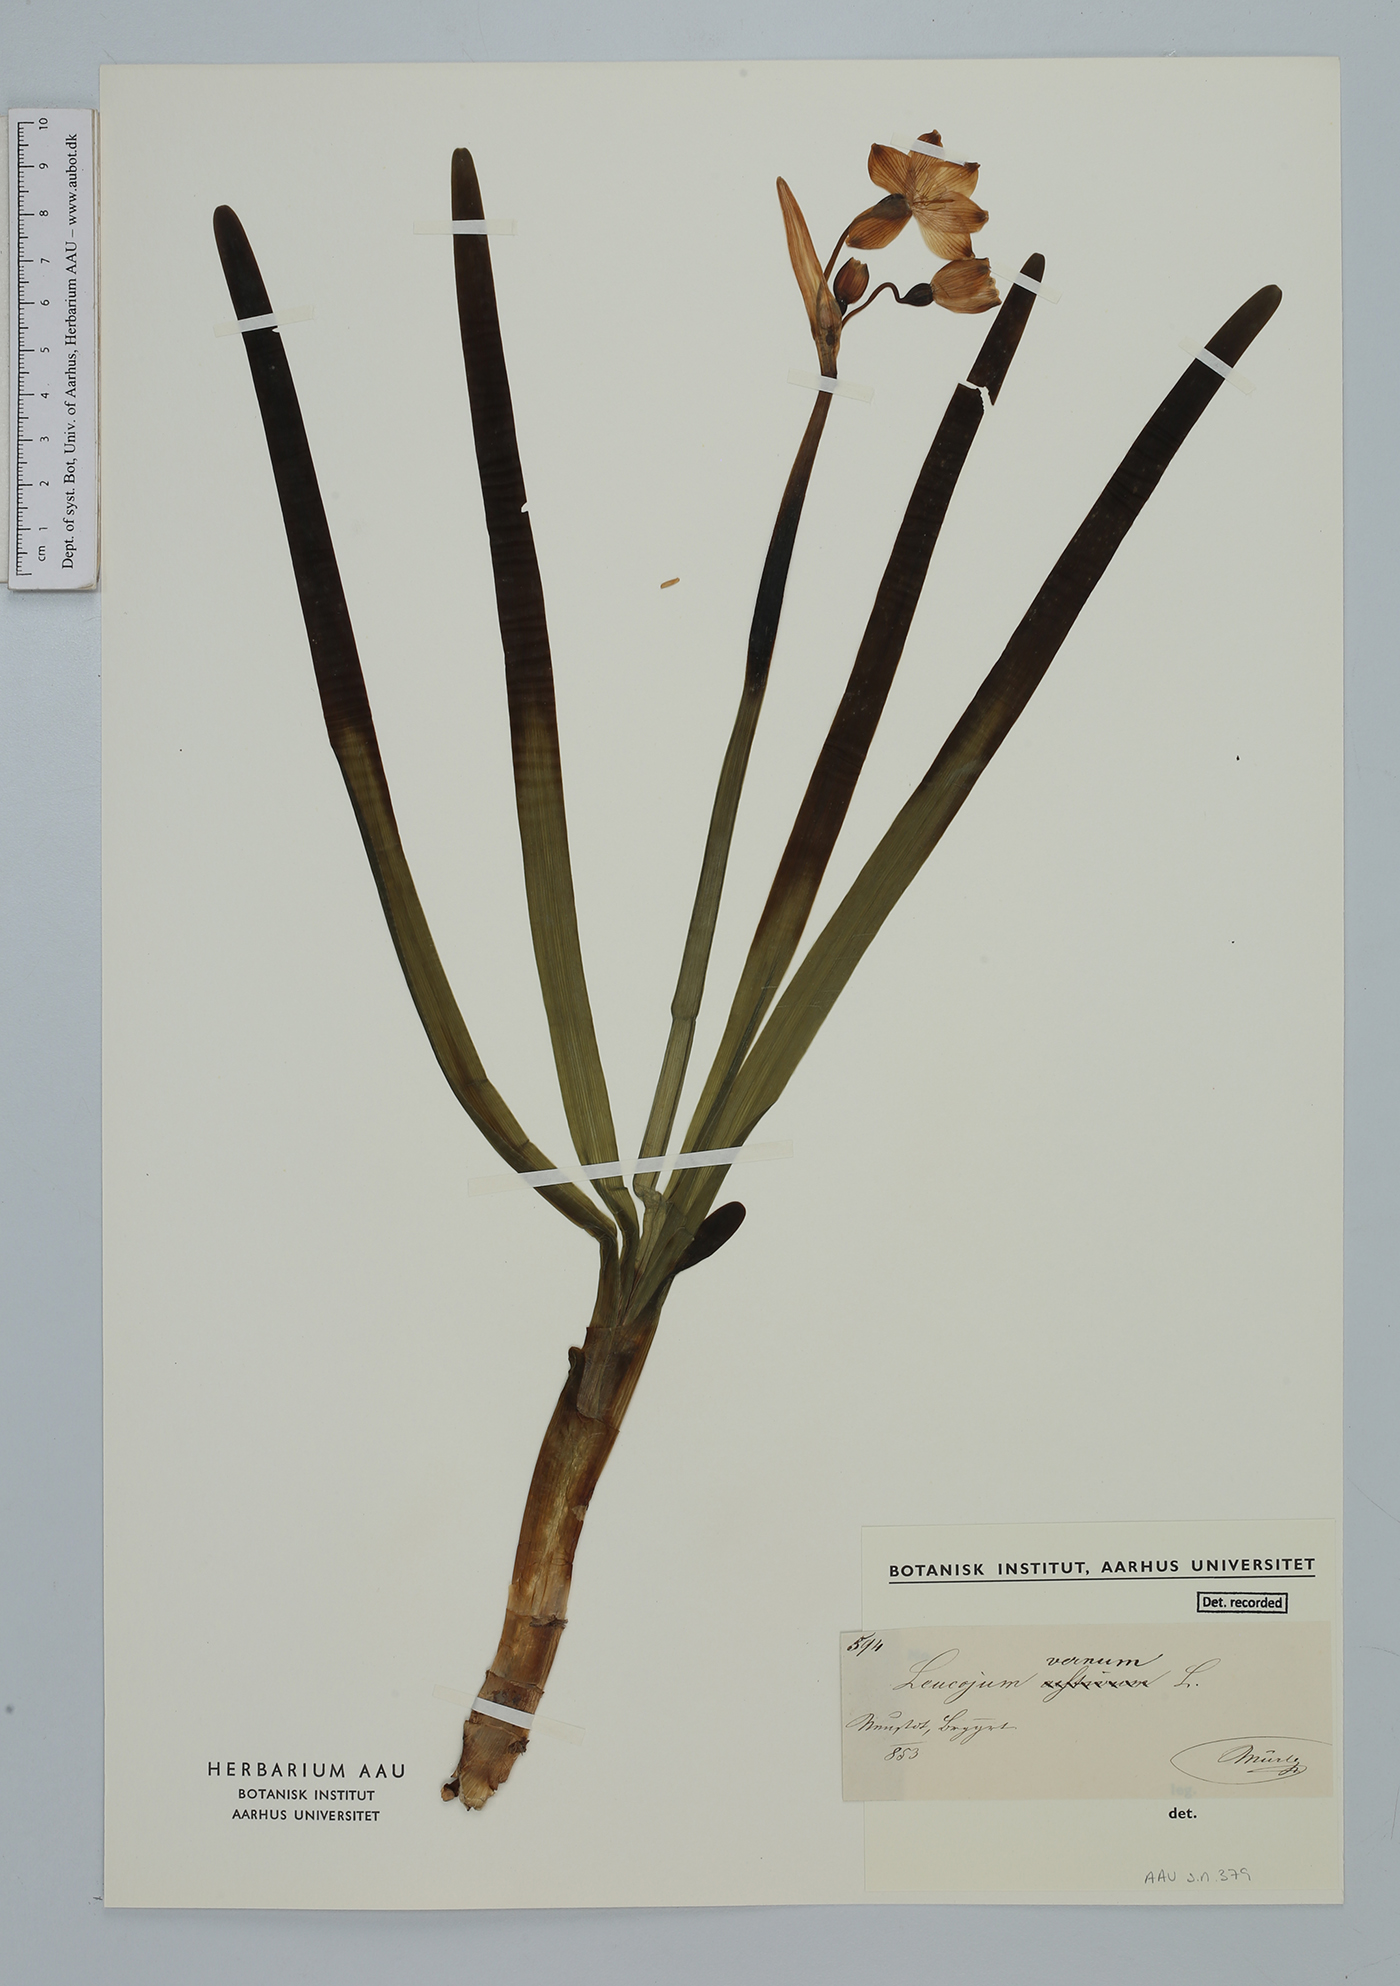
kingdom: Plantae
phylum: Tracheophyta
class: Liliopsida
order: Asparagales
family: Amaryllidaceae
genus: Leucojum
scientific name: Leucojum vernum
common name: Spring snowflake
